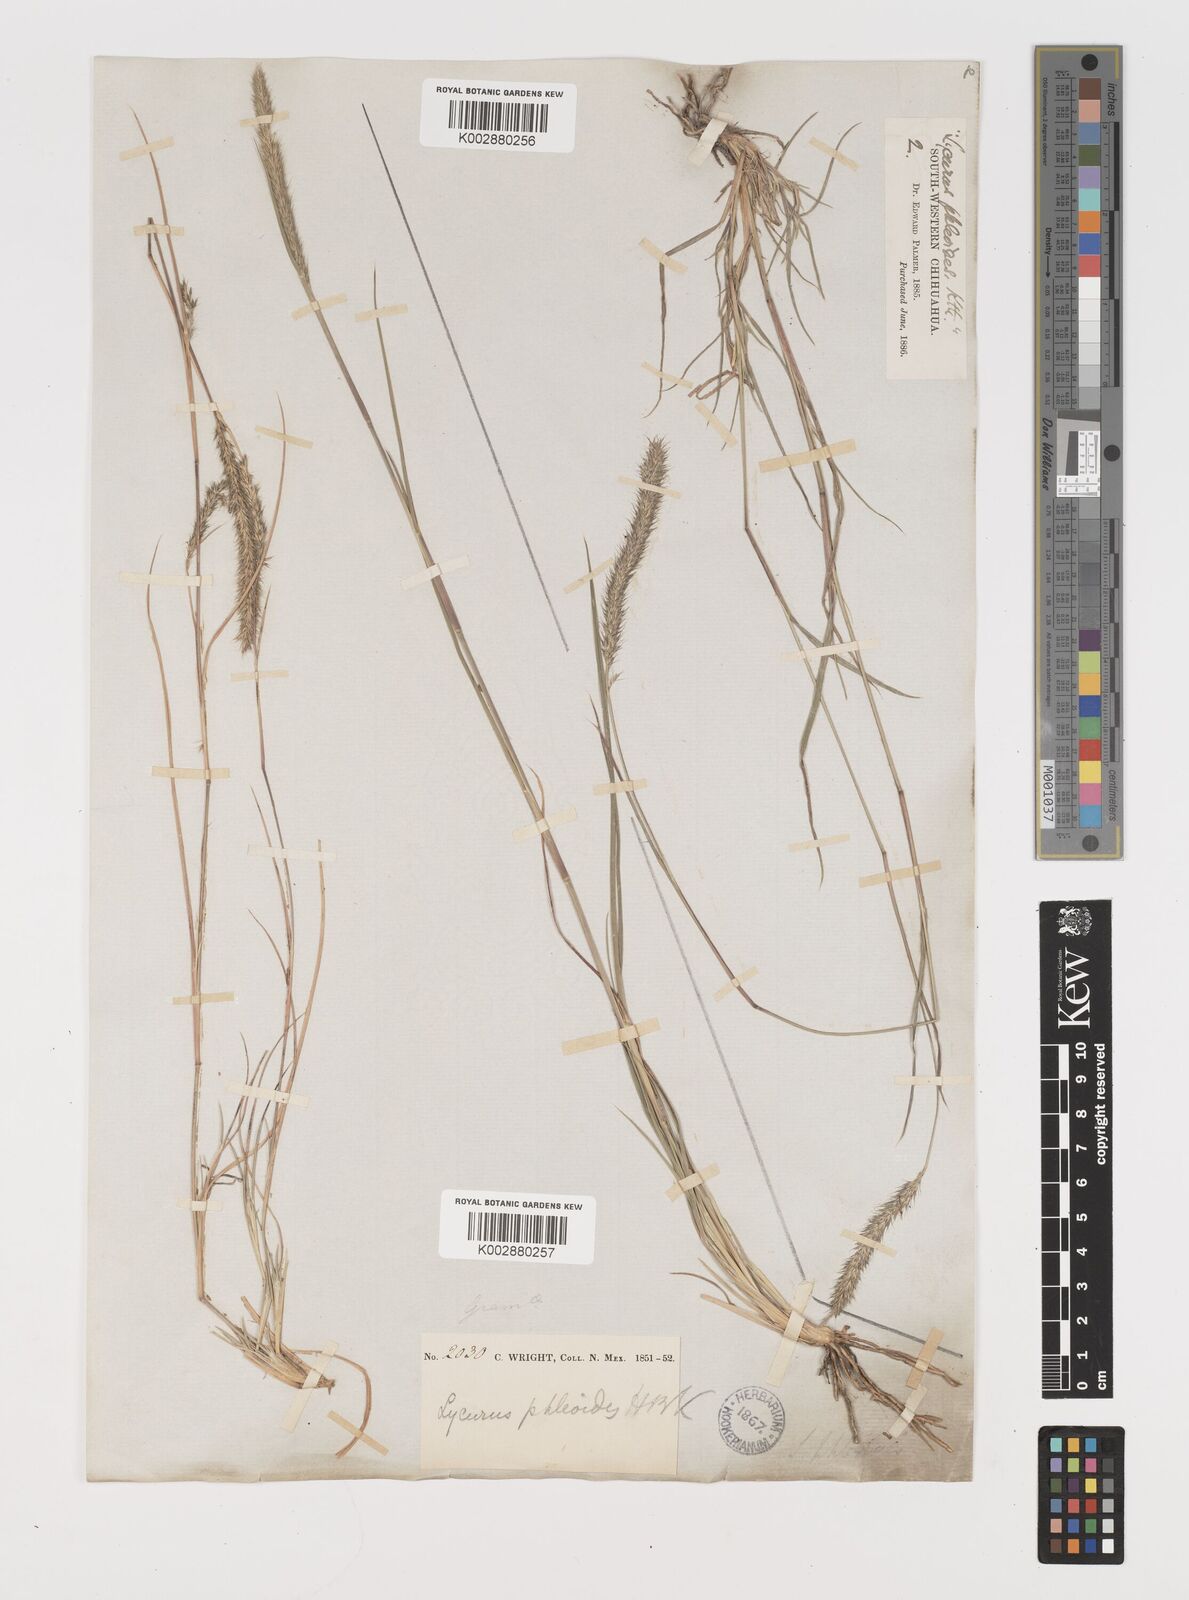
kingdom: Plantae
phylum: Tracheophyta
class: Liliopsida
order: Poales
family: Poaceae
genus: Muhlenbergia
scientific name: Muhlenbergia alopecuroides
